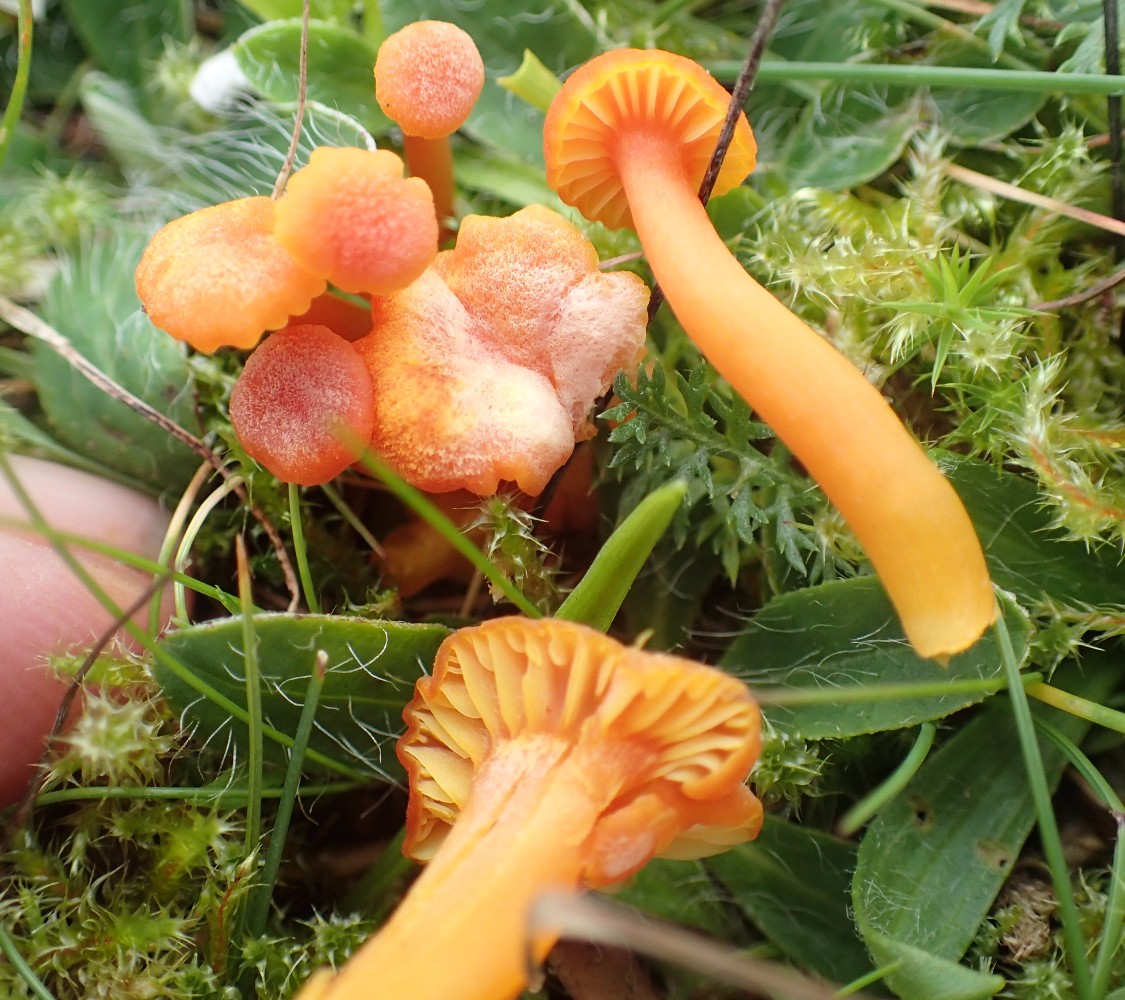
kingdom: Fungi
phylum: Basidiomycota
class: Agaricomycetes
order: Agaricales
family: Hygrophoraceae
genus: Hygrocybe
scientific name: Hygrocybe cantharellus
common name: kantarel-vokshat
